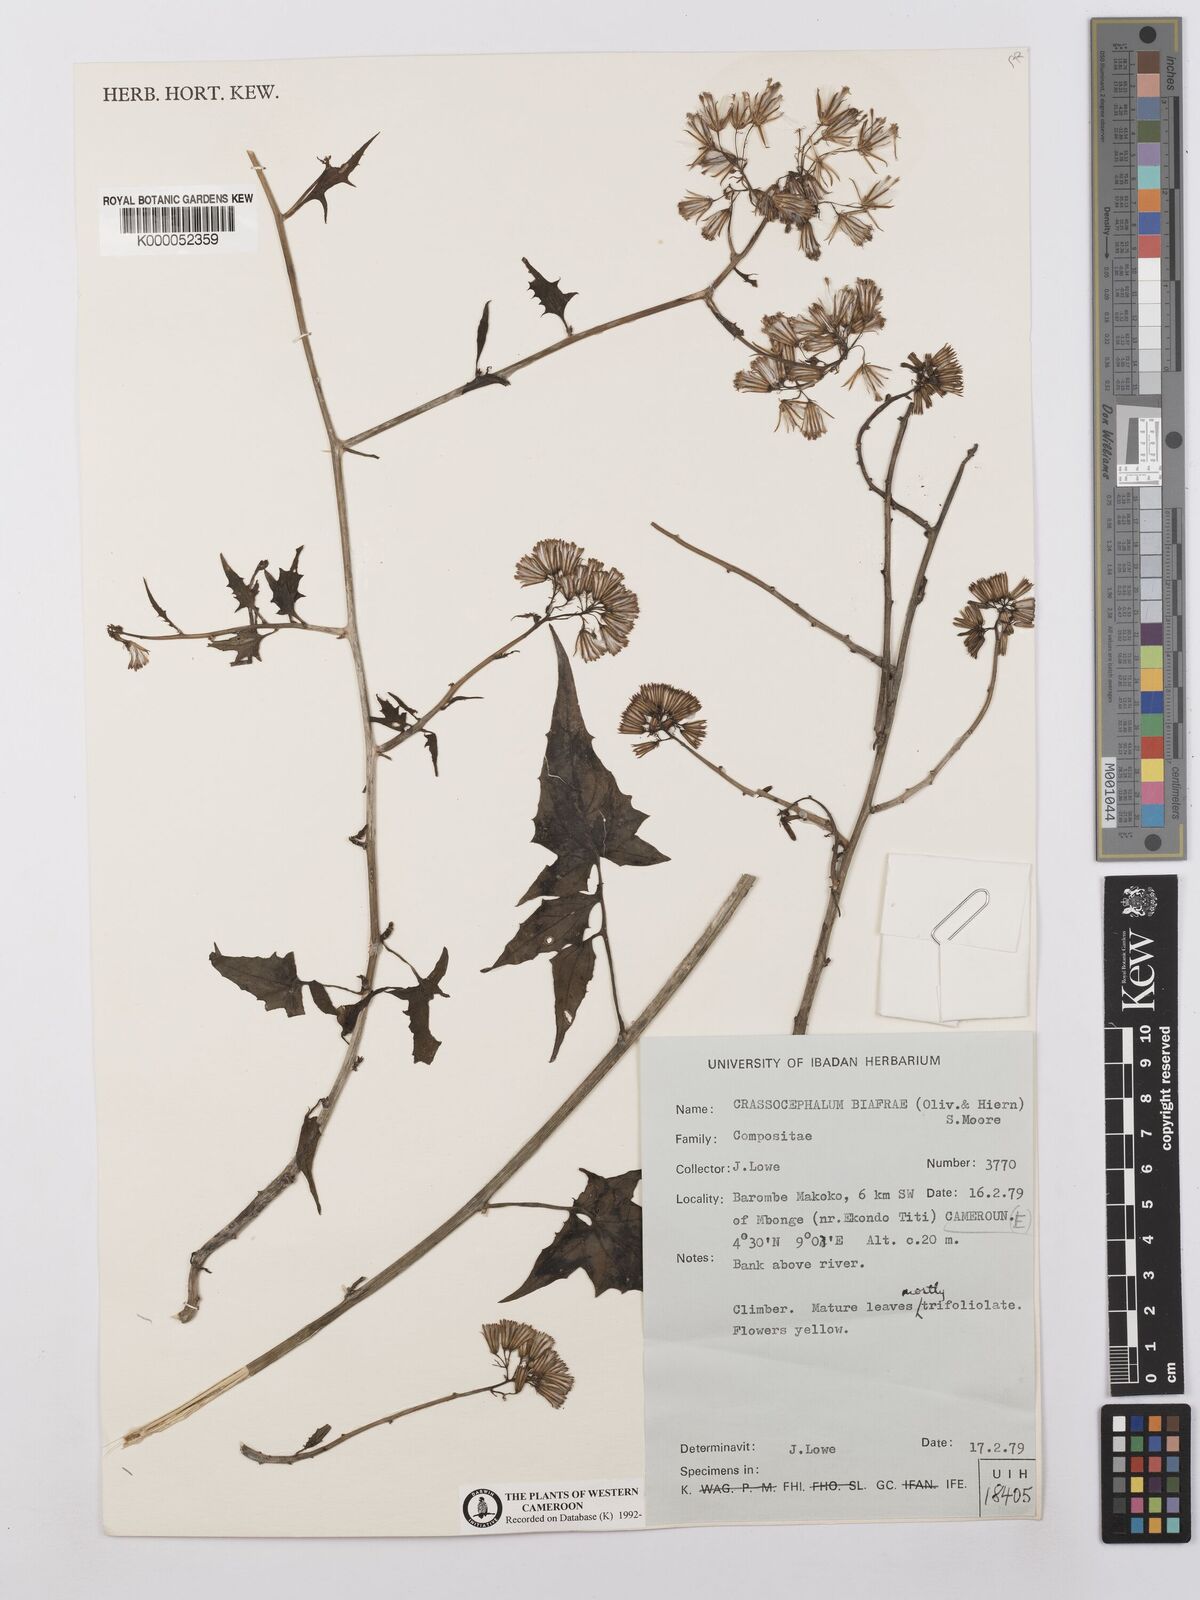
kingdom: Plantae
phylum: Tracheophyta
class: Magnoliopsida
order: Asterales
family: Asteraceae
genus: Solanecio
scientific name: Solanecio biafrae
